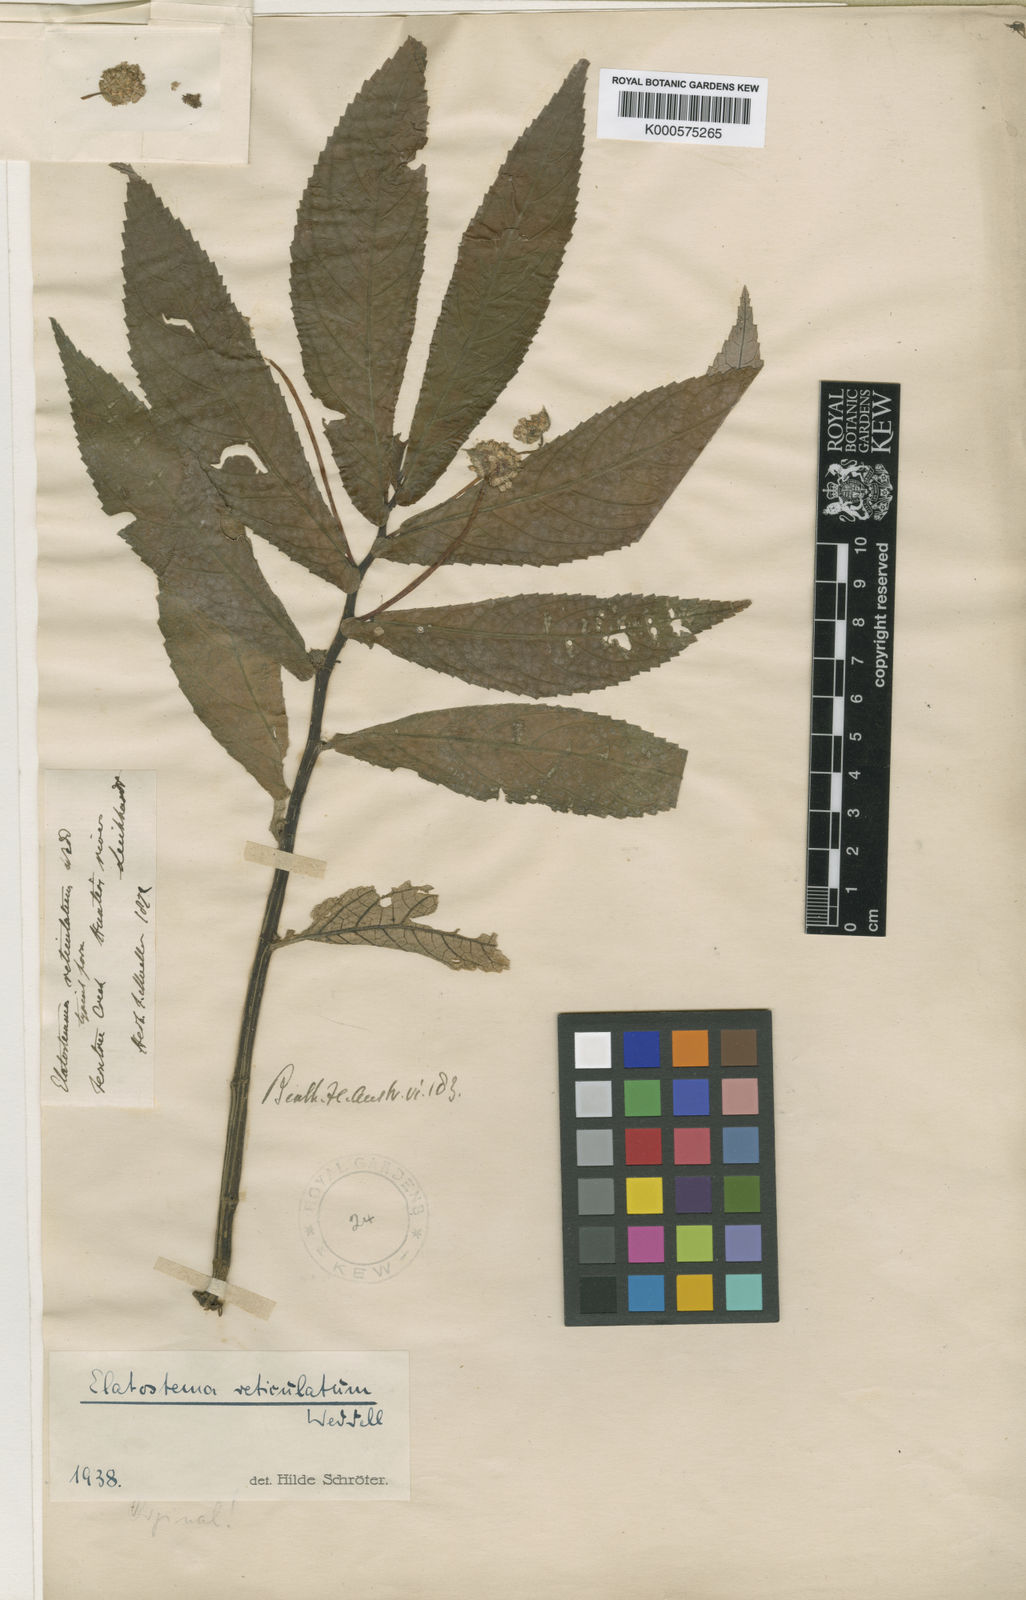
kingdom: Plantae
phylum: Tracheophyta
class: Magnoliopsida
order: Rosales
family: Urticaceae
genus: Elatostema
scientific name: Elatostema reticulatum
